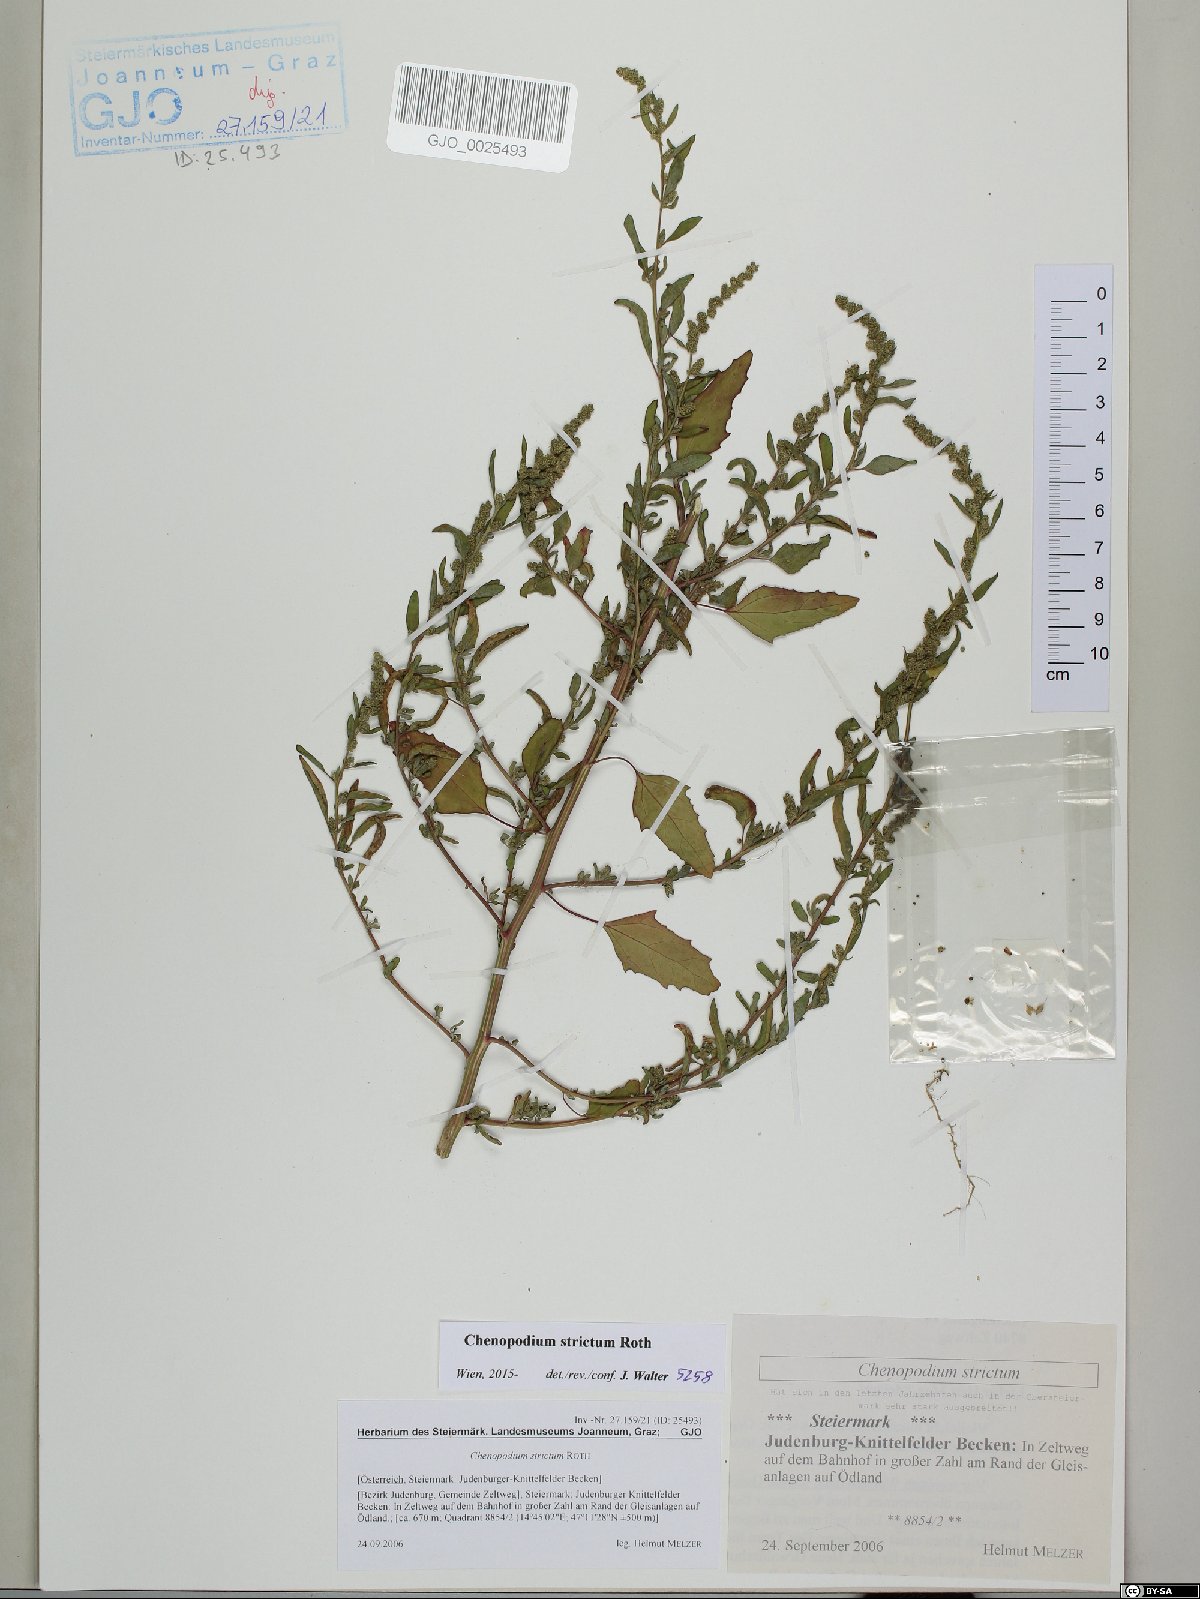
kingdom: Plantae
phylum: Tracheophyta
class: Magnoliopsida
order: Caryophyllales
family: Amaranthaceae
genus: Chenopodium
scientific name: Chenopodium album
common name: Fat-hen
